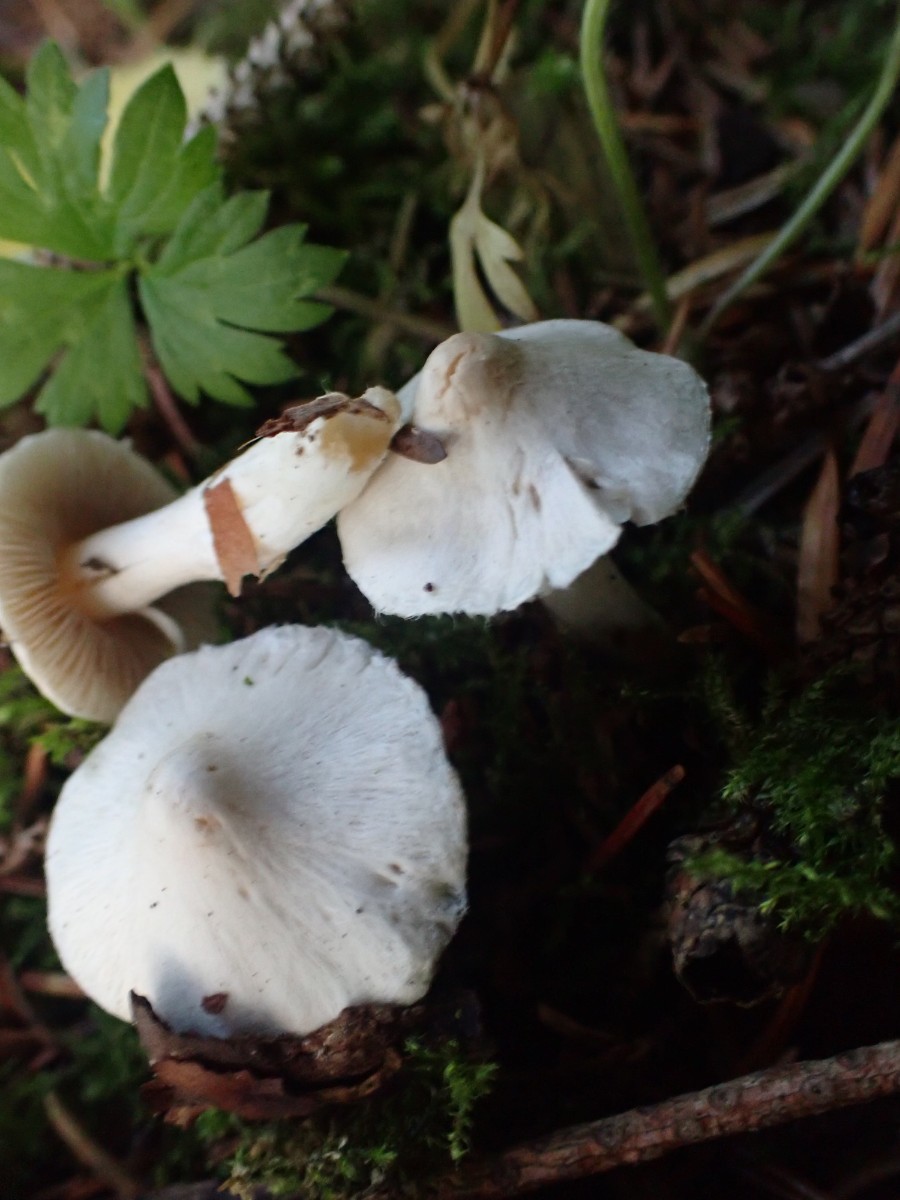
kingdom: Fungi
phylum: Basidiomycota
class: Agaricomycetes
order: Agaricales
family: Inocybaceae
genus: Inocybe
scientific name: Inocybe
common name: almindelig trævlhat
